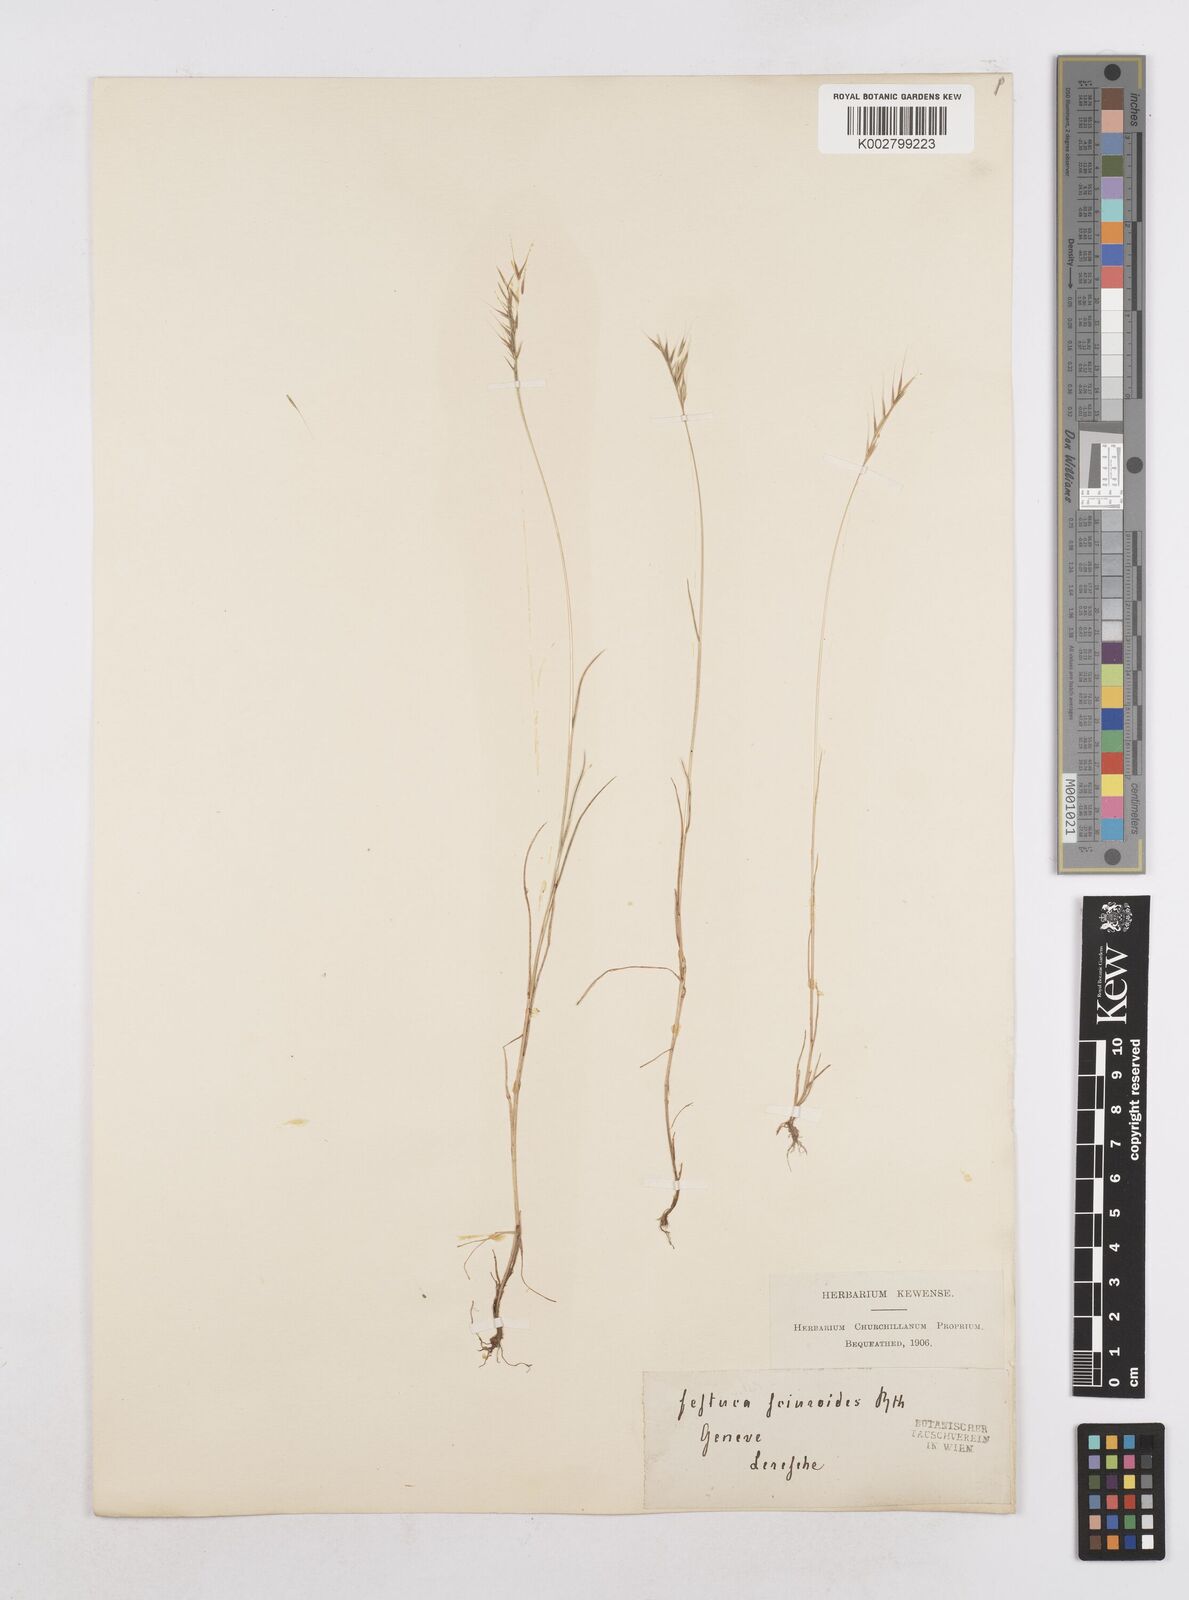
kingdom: Plantae
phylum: Tracheophyta
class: Liliopsida
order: Poales
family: Poaceae
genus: Festuca
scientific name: Festuca bromoides
